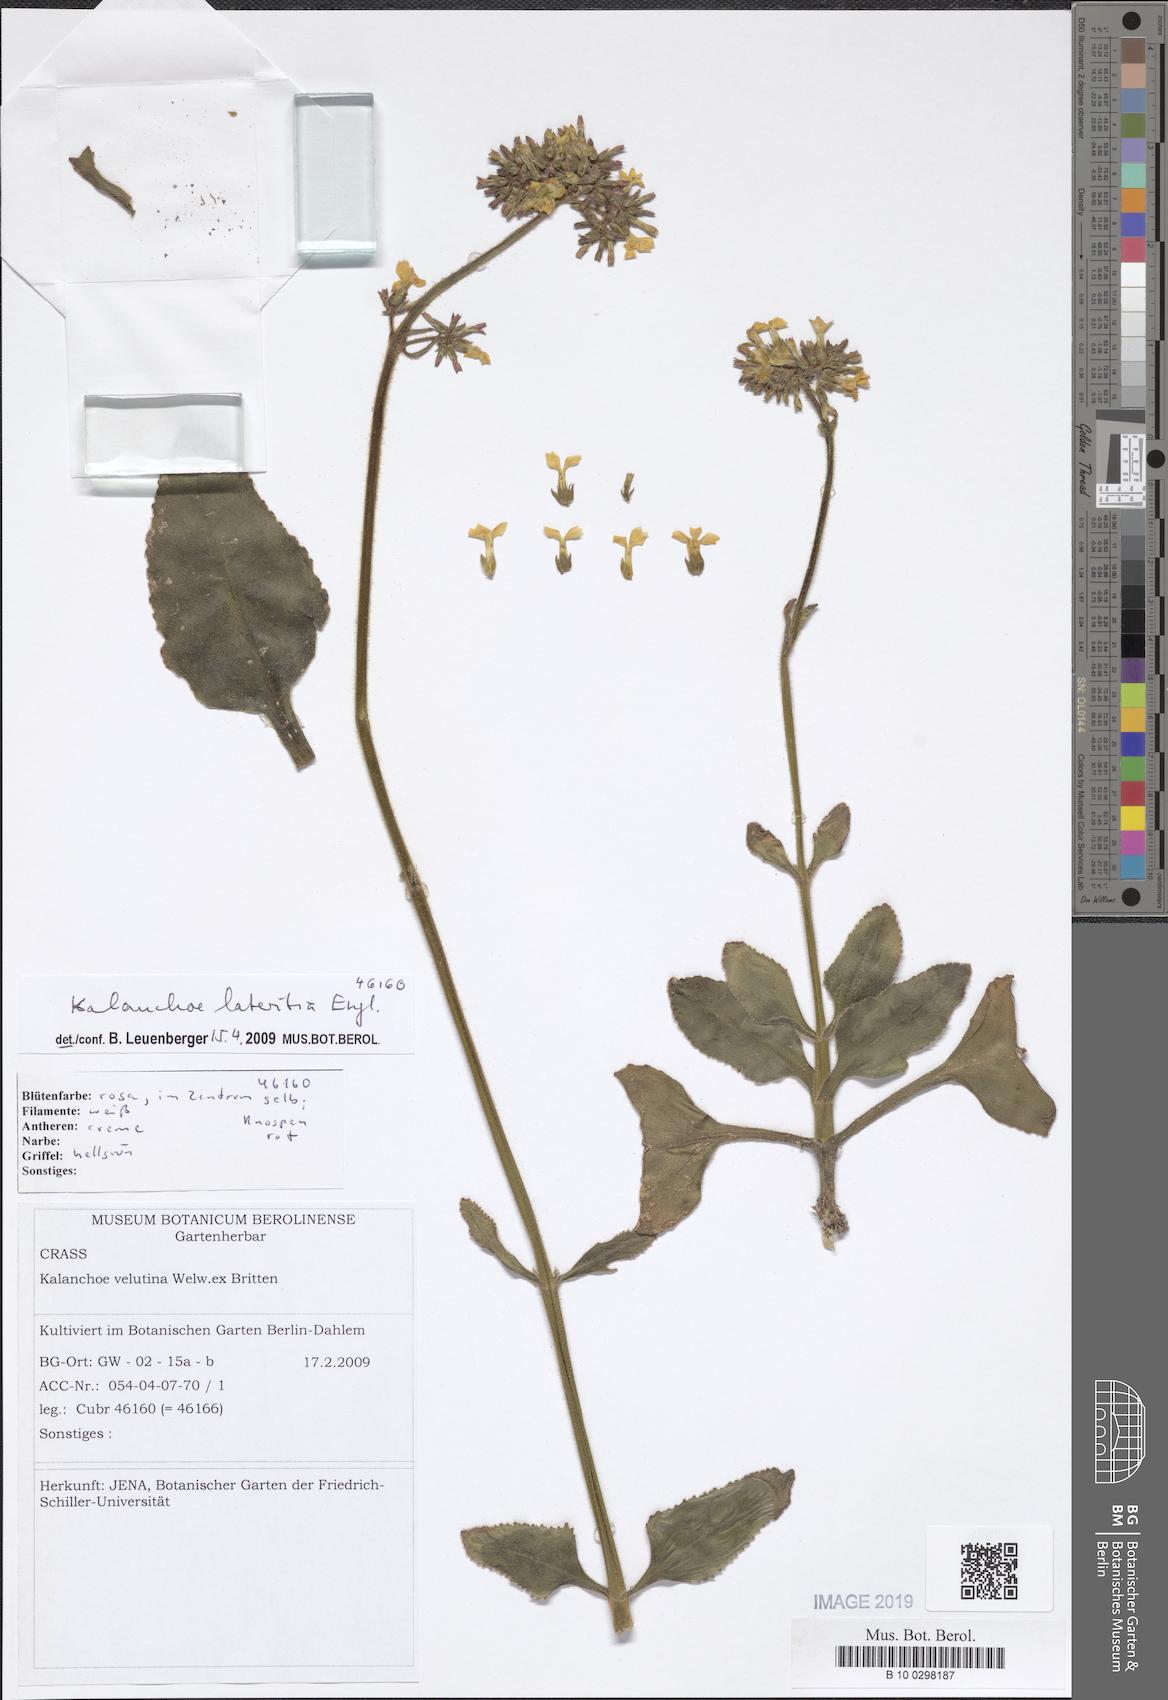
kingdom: Plantae
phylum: Tracheophyta
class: Magnoliopsida
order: Saxifragales
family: Crassulaceae
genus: Kalanchoe
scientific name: Kalanchoe lateritia
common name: Kalanchoe
